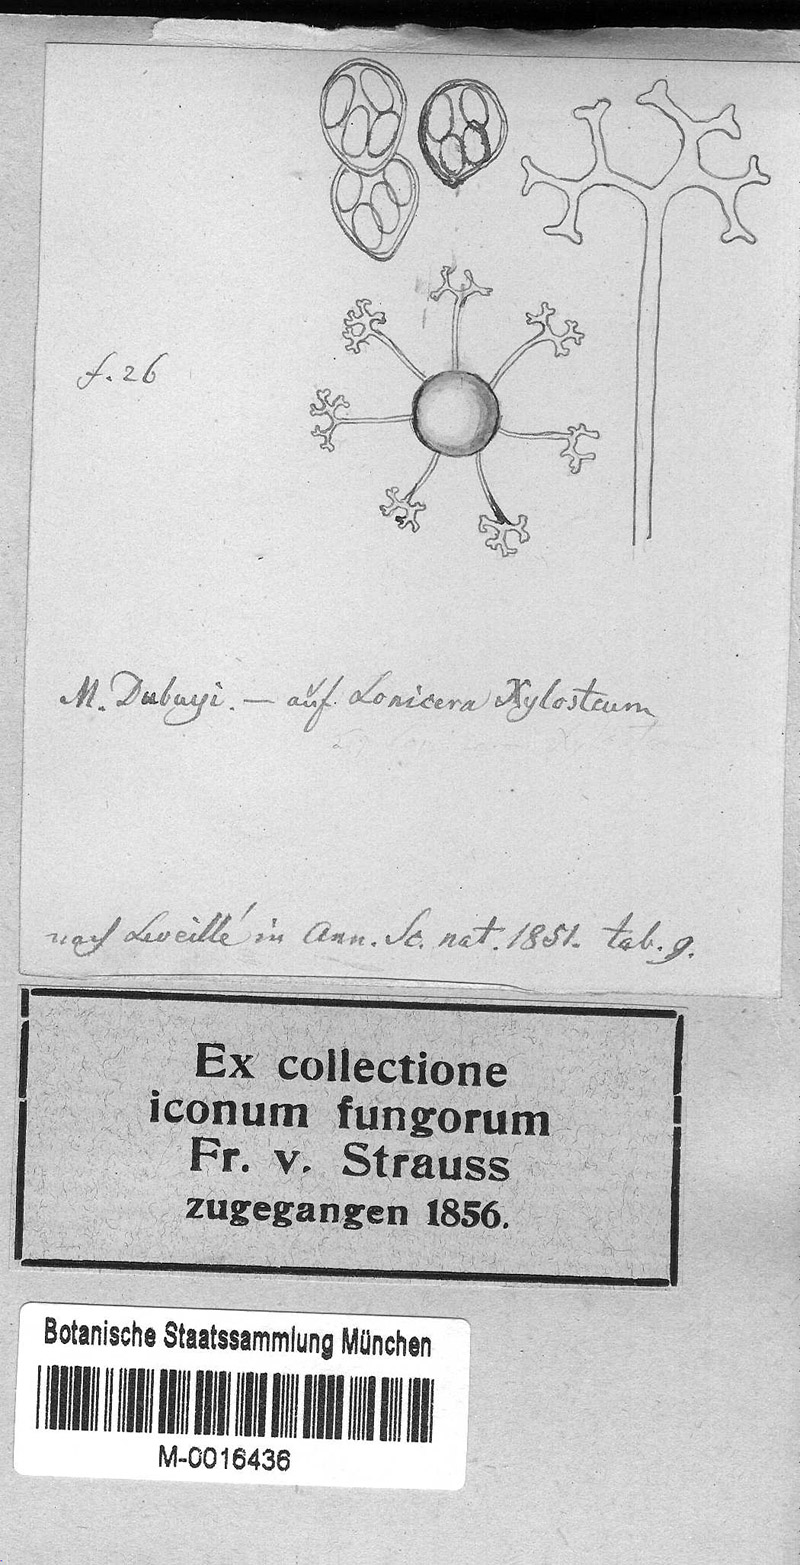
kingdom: Fungi
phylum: Ascomycota
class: Leotiomycetes
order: Helotiales
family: Erysiphaceae
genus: Erysiphe
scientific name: Erysiphe lonicerae
